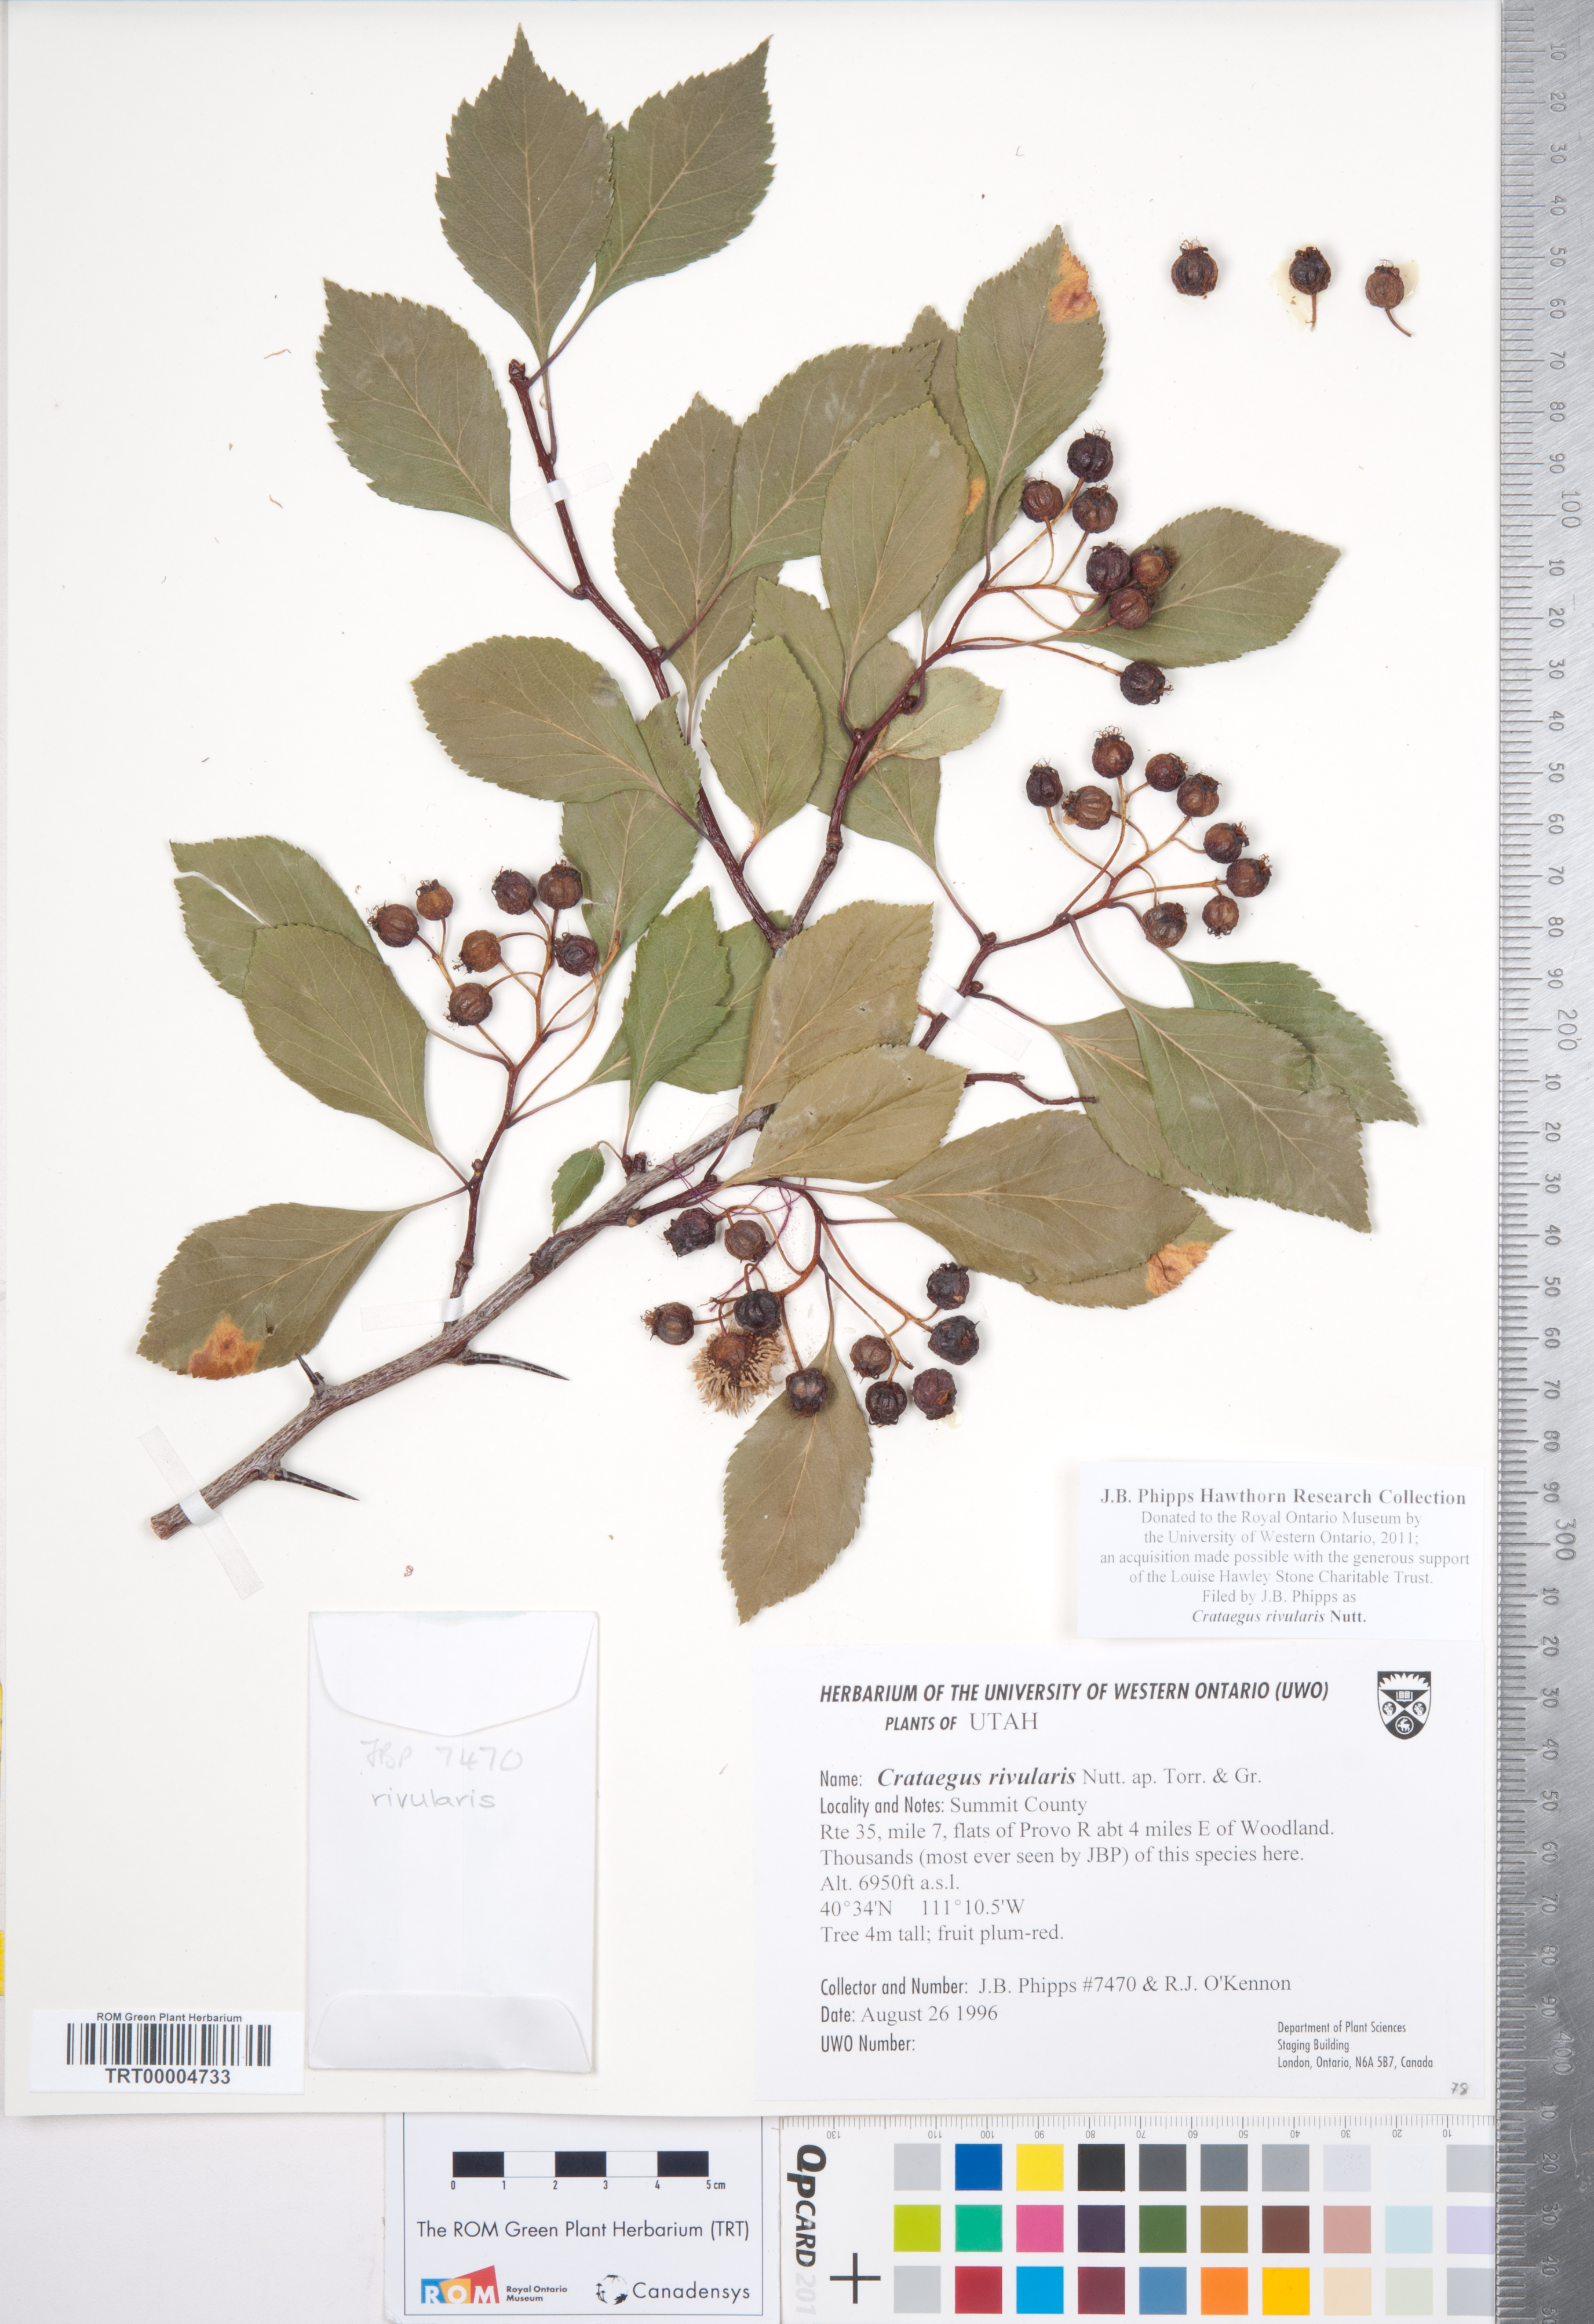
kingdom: Plantae
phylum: Tracheophyta
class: Magnoliopsida
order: Rosales
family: Rosaceae
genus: Crataegus
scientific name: Crataegus rivularis
